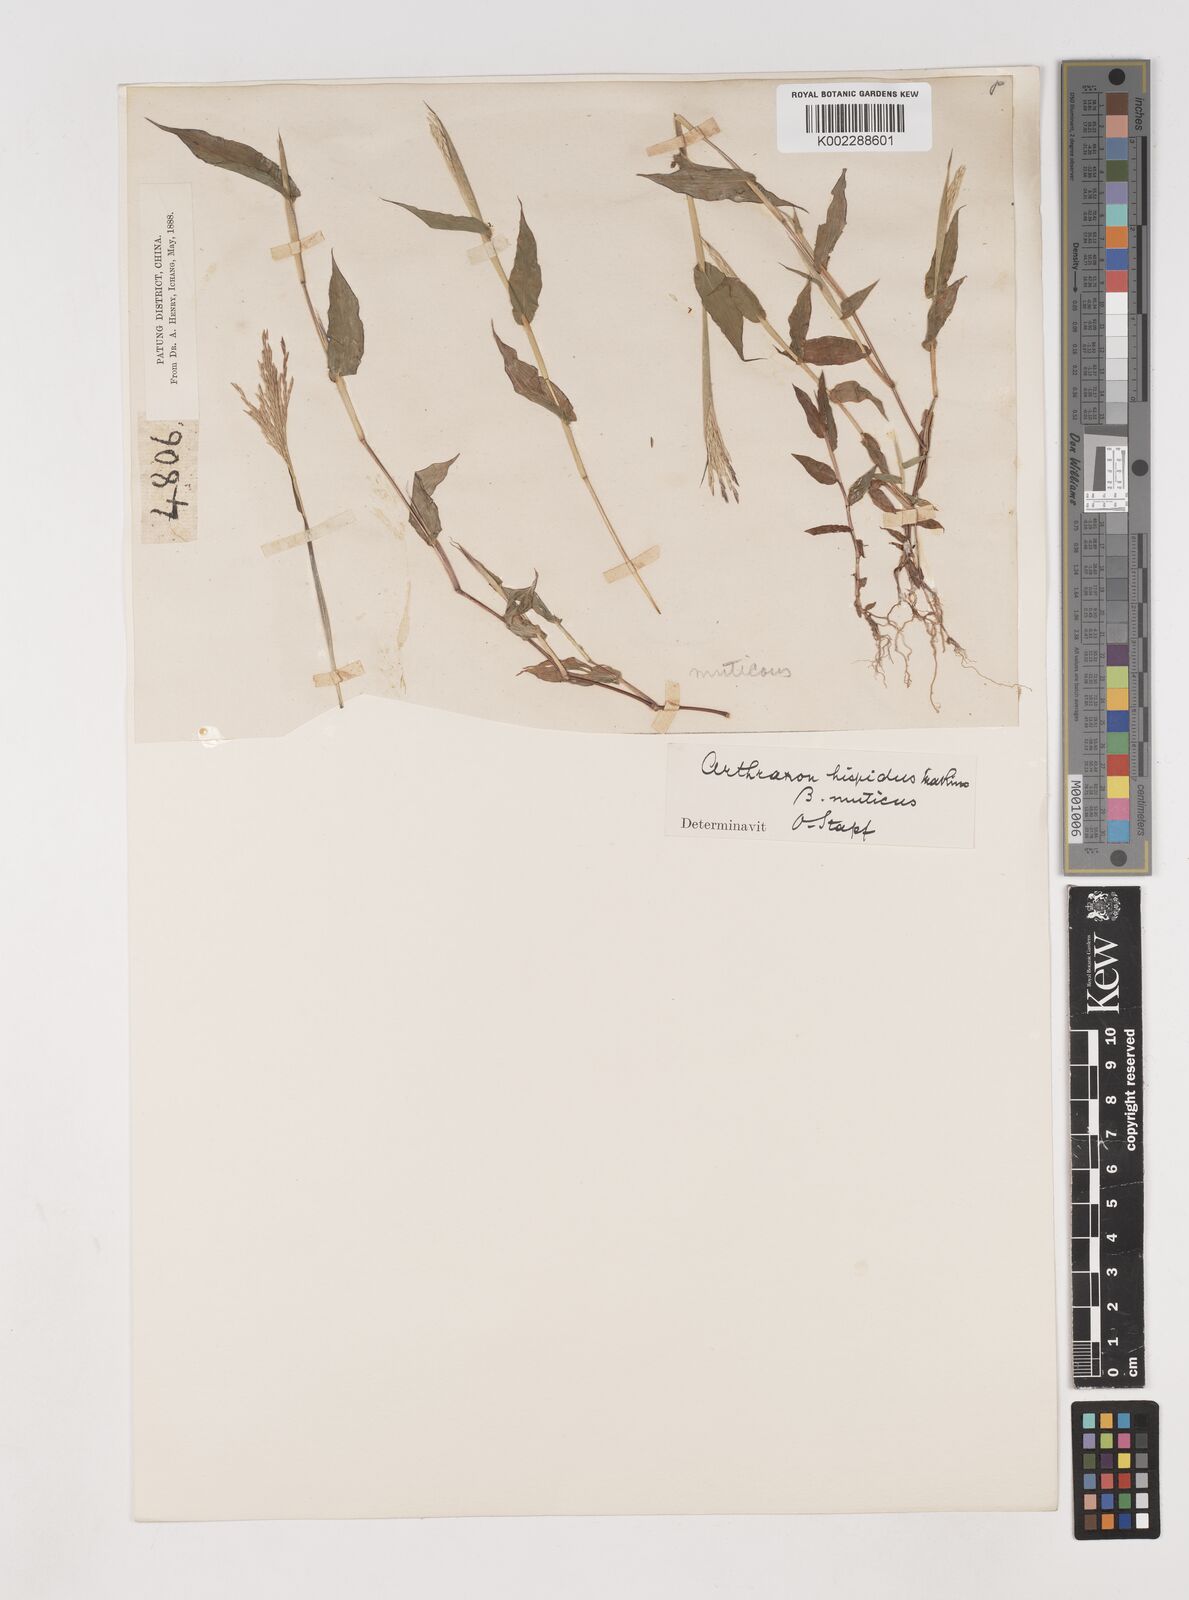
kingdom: Plantae
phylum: Tracheophyta
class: Liliopsida
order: Poales
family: Poaceae
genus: Arthraxon
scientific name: Arthraxon hispidus
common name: Small carpgrass
